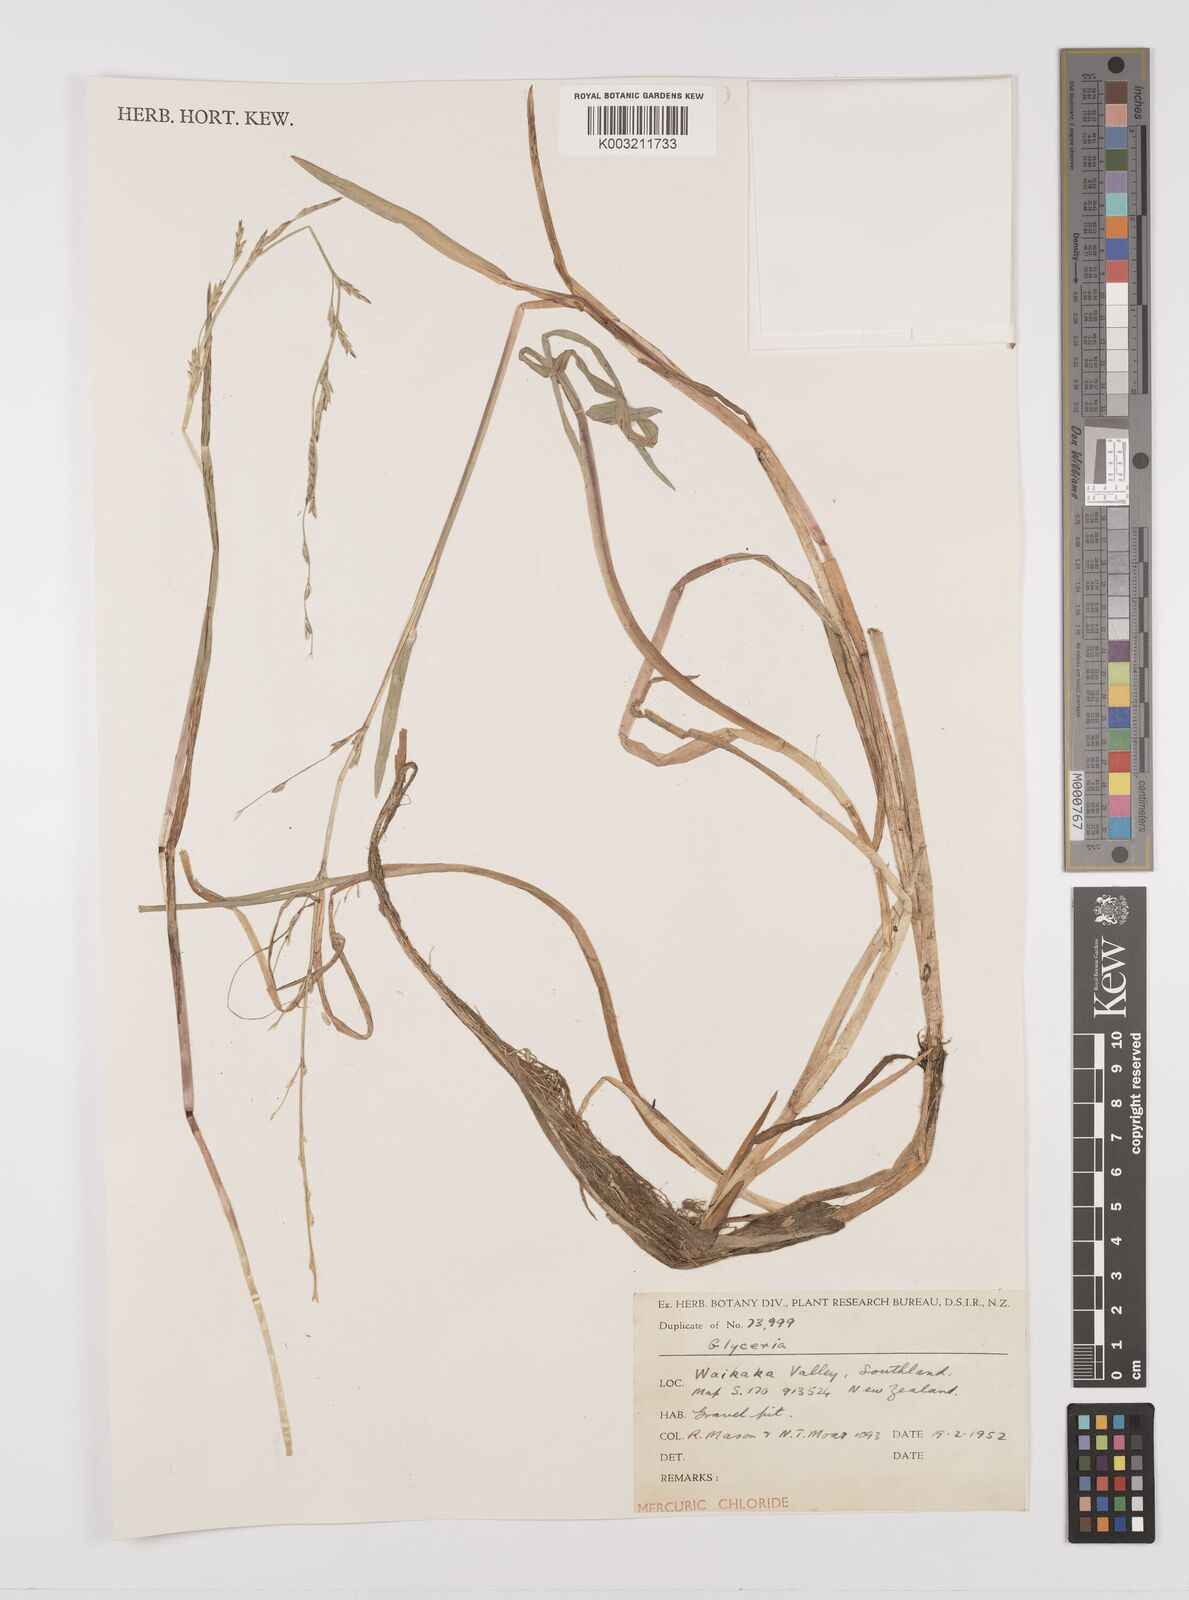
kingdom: Plantae
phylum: Tracheophyta
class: Liliopsida
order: Poales
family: Poaceae
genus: Glyceria
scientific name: Glyceria
